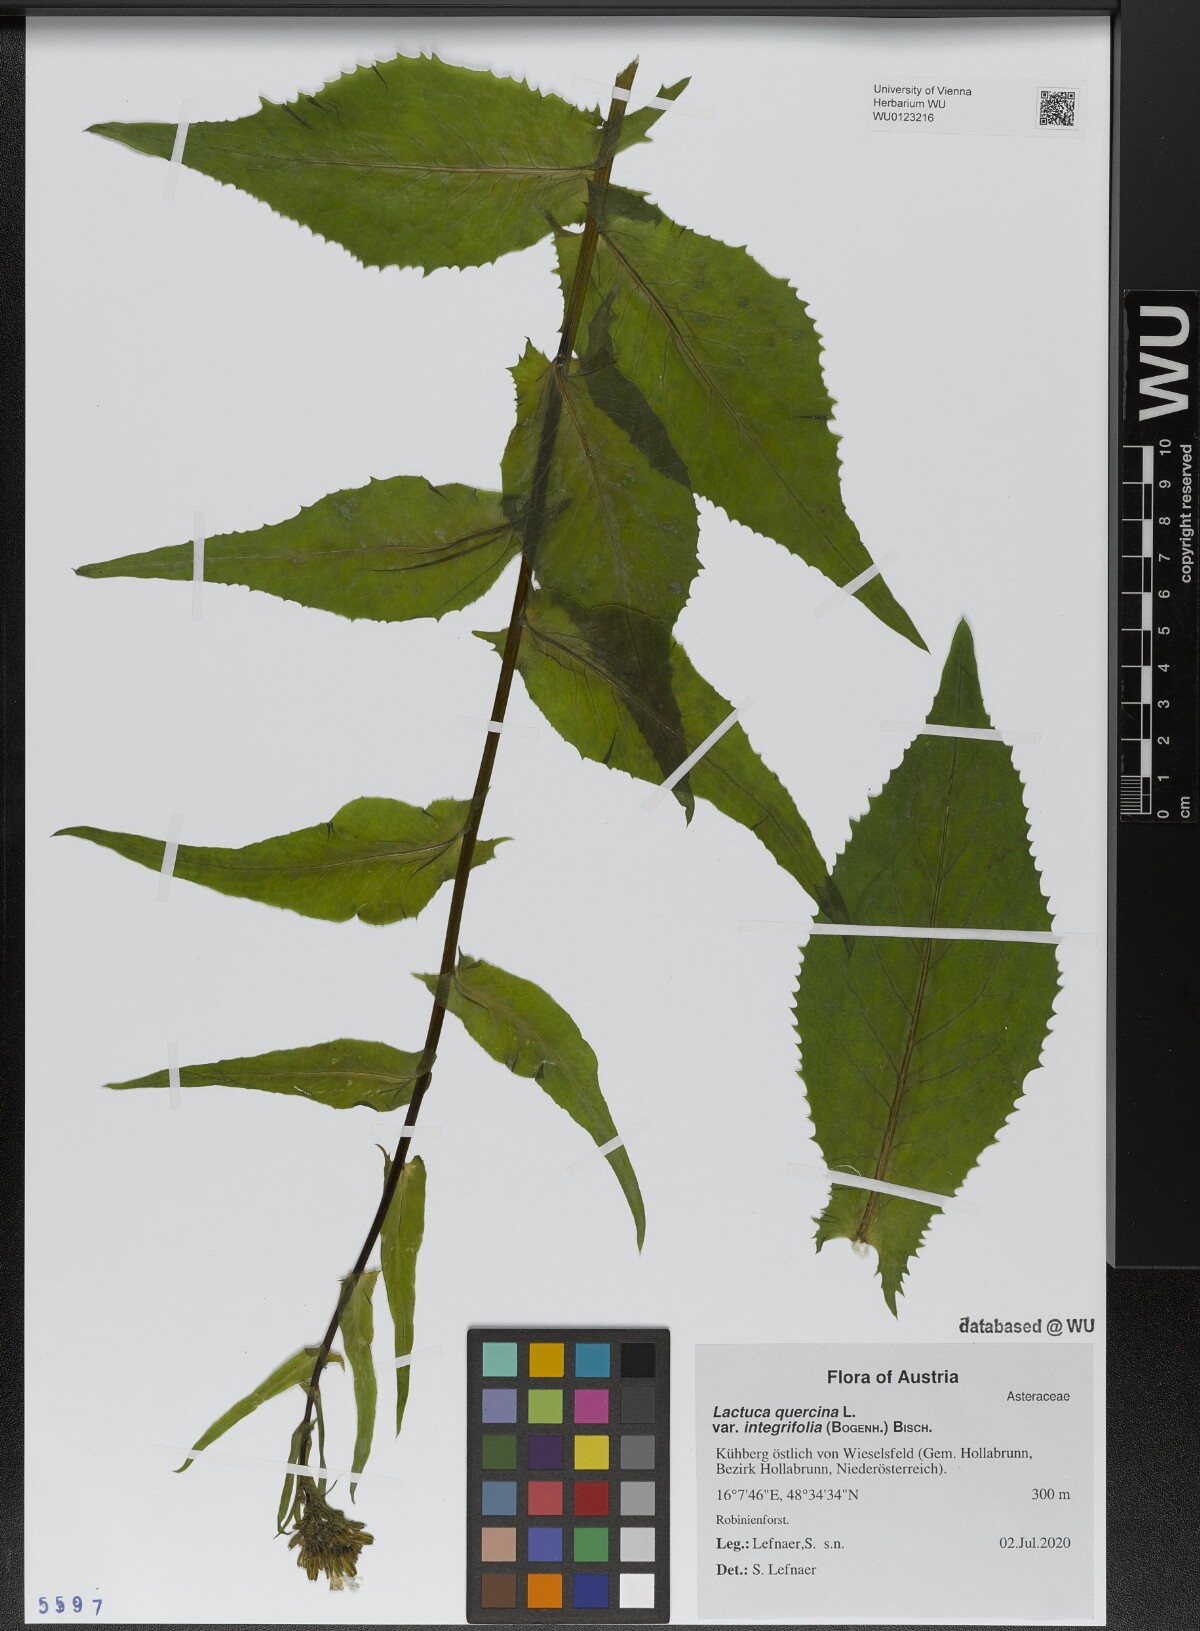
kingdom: Plantae
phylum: Tracheophyta
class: Magnoliopsida
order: Asterales
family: Asteraceae
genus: Lactuca
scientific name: Lactuca quercina
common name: Wild lettuce
